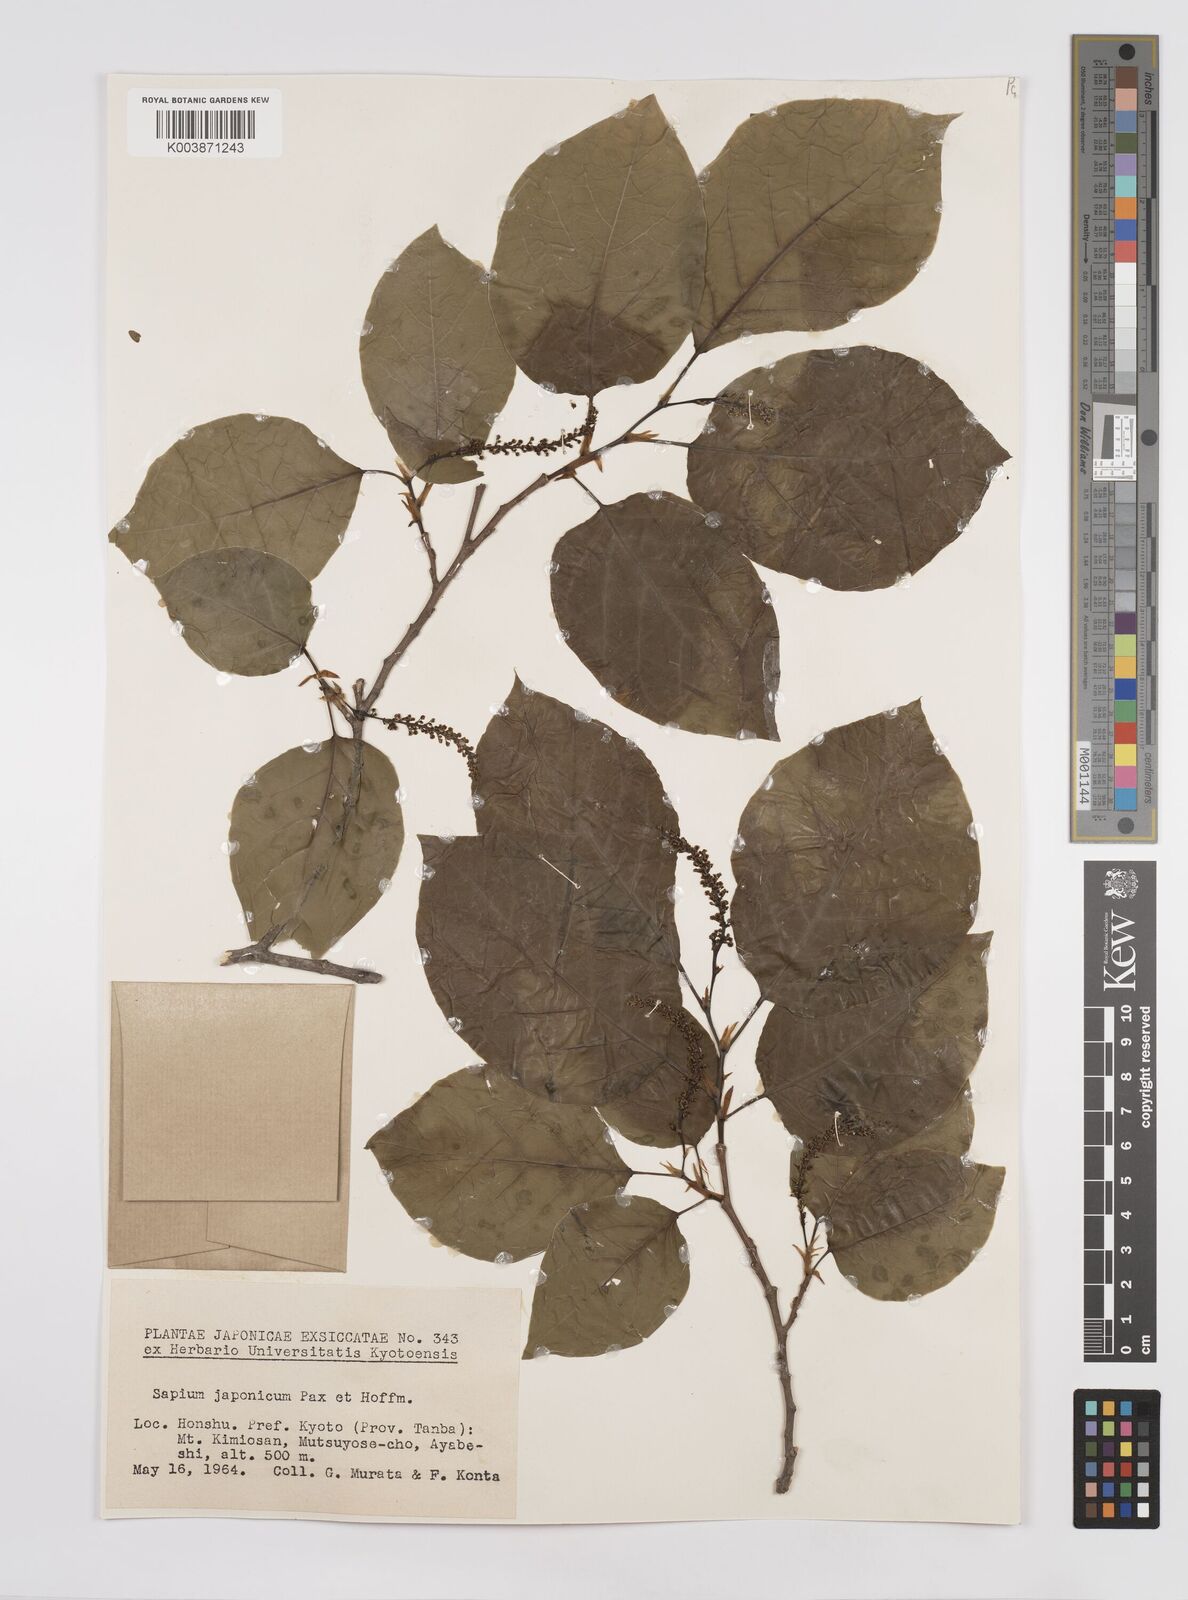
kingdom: Plantae
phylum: Tracheophyta
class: Magnoliopsida
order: Malpighiales
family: Euphorbiaceae
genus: Neoshirakia
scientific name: Neoshirakia japonica
